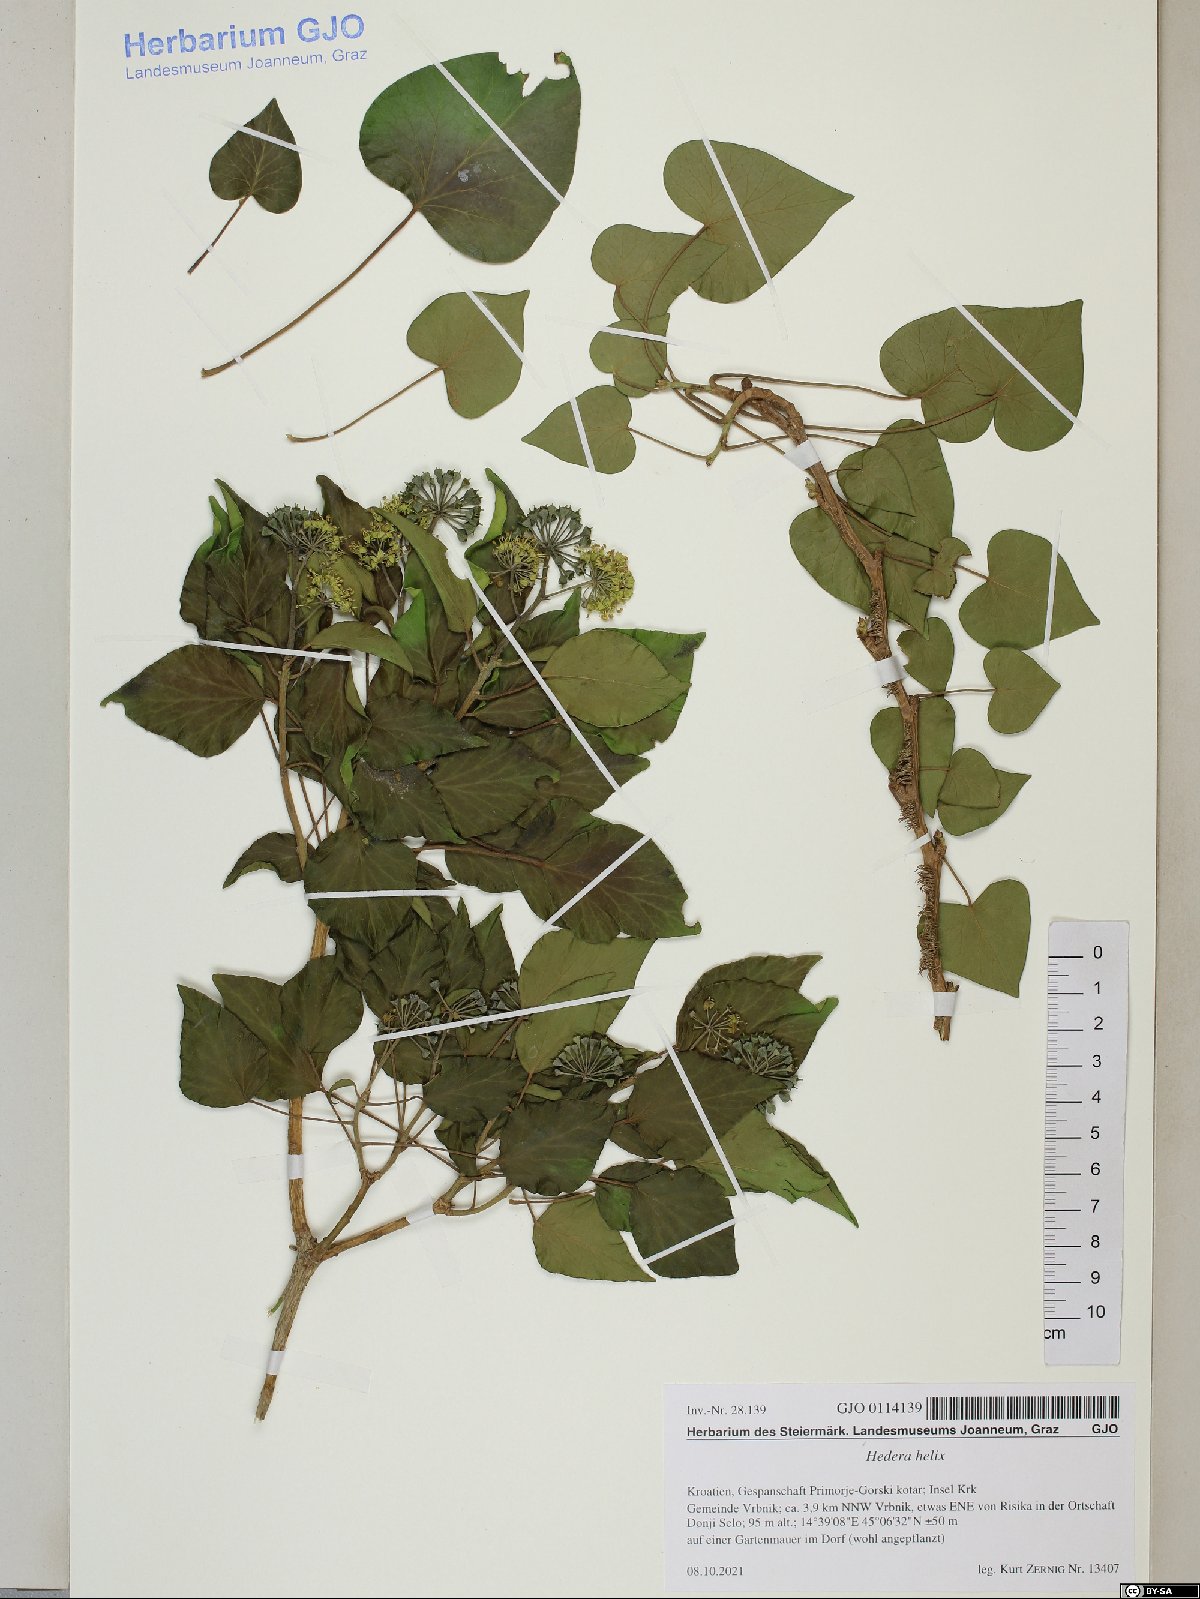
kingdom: Plantae
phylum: Tracheophyta
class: Magnoliopsida
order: Apiales
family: Araliaceae
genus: Hedera
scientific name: Hedera helix
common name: Ivy
